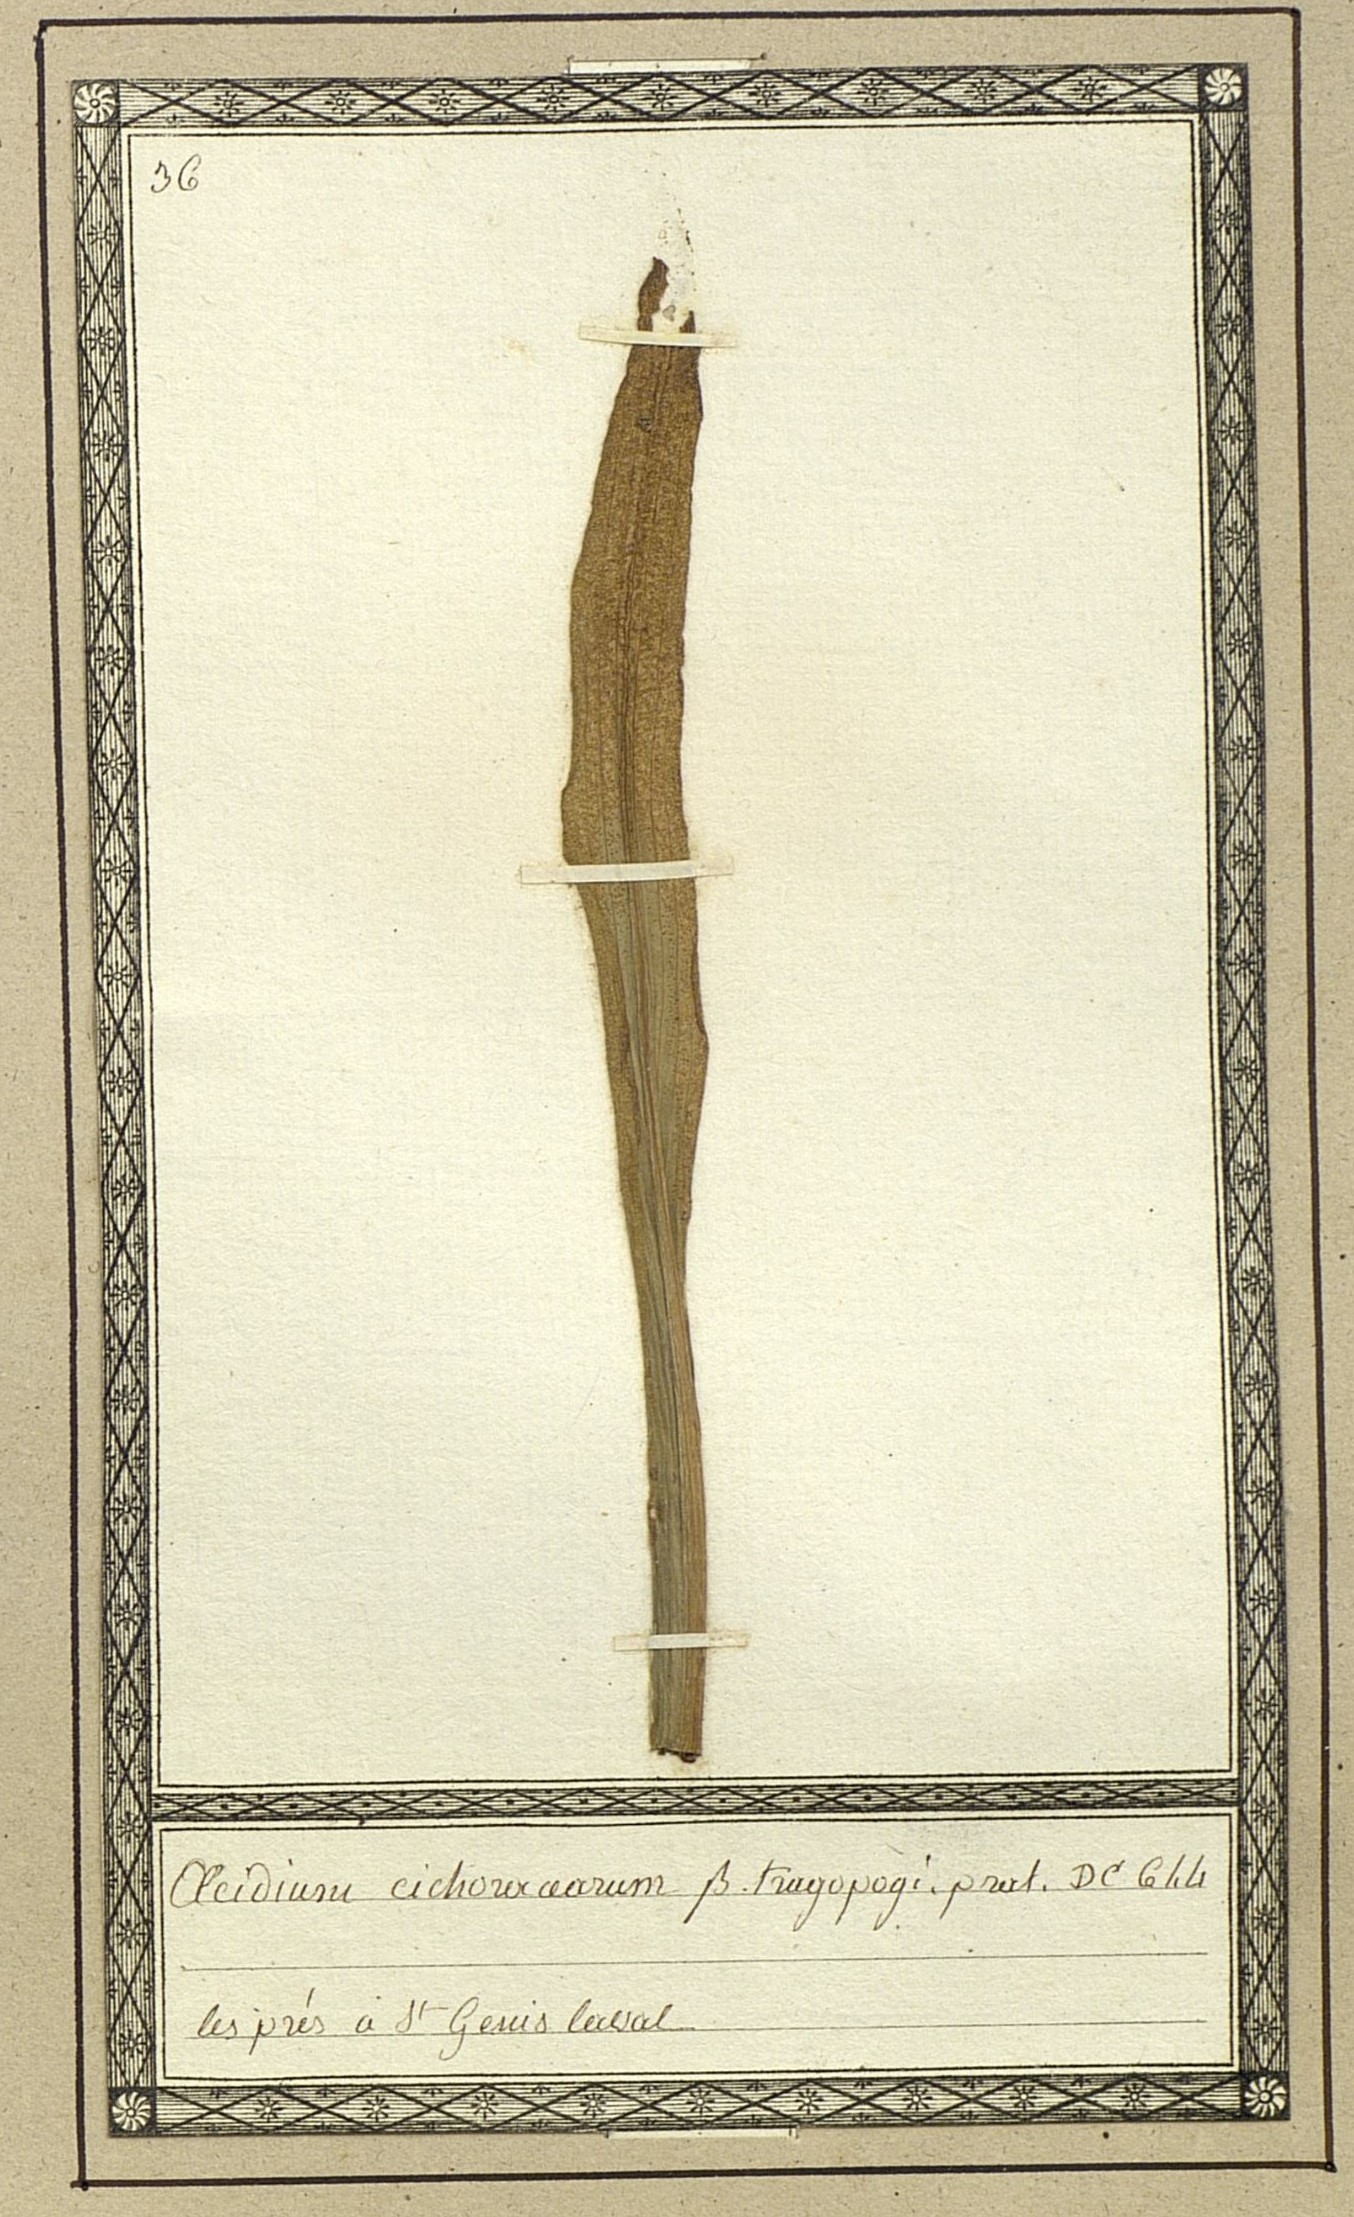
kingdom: Fungi
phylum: Basidiomycota
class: Pucciniomycetes
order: Pucciniales
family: Pucciniaceae
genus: Puccinia
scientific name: Puccinia hysterium
